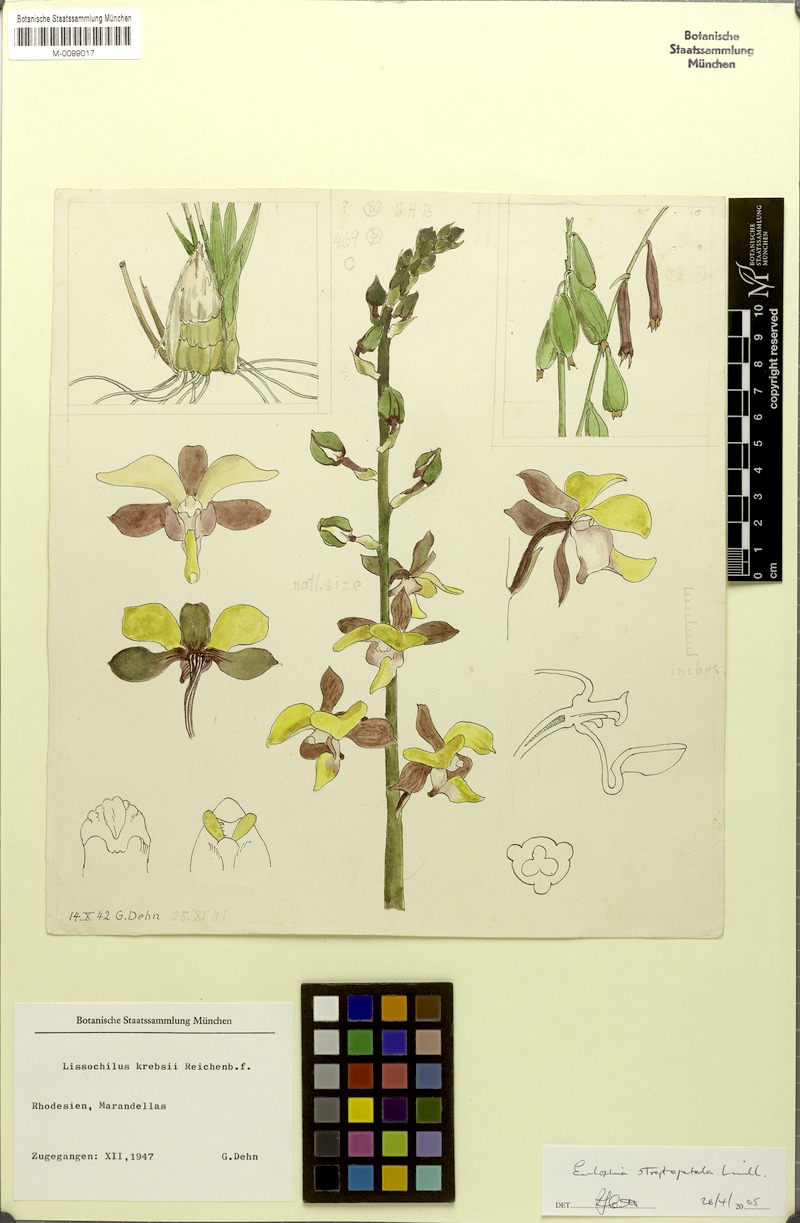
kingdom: Plantae
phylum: Tracheophyta
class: Liliopsida
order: Asparagales
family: Orchidaceae
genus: Eulophia
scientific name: Eulophia streptopetala
